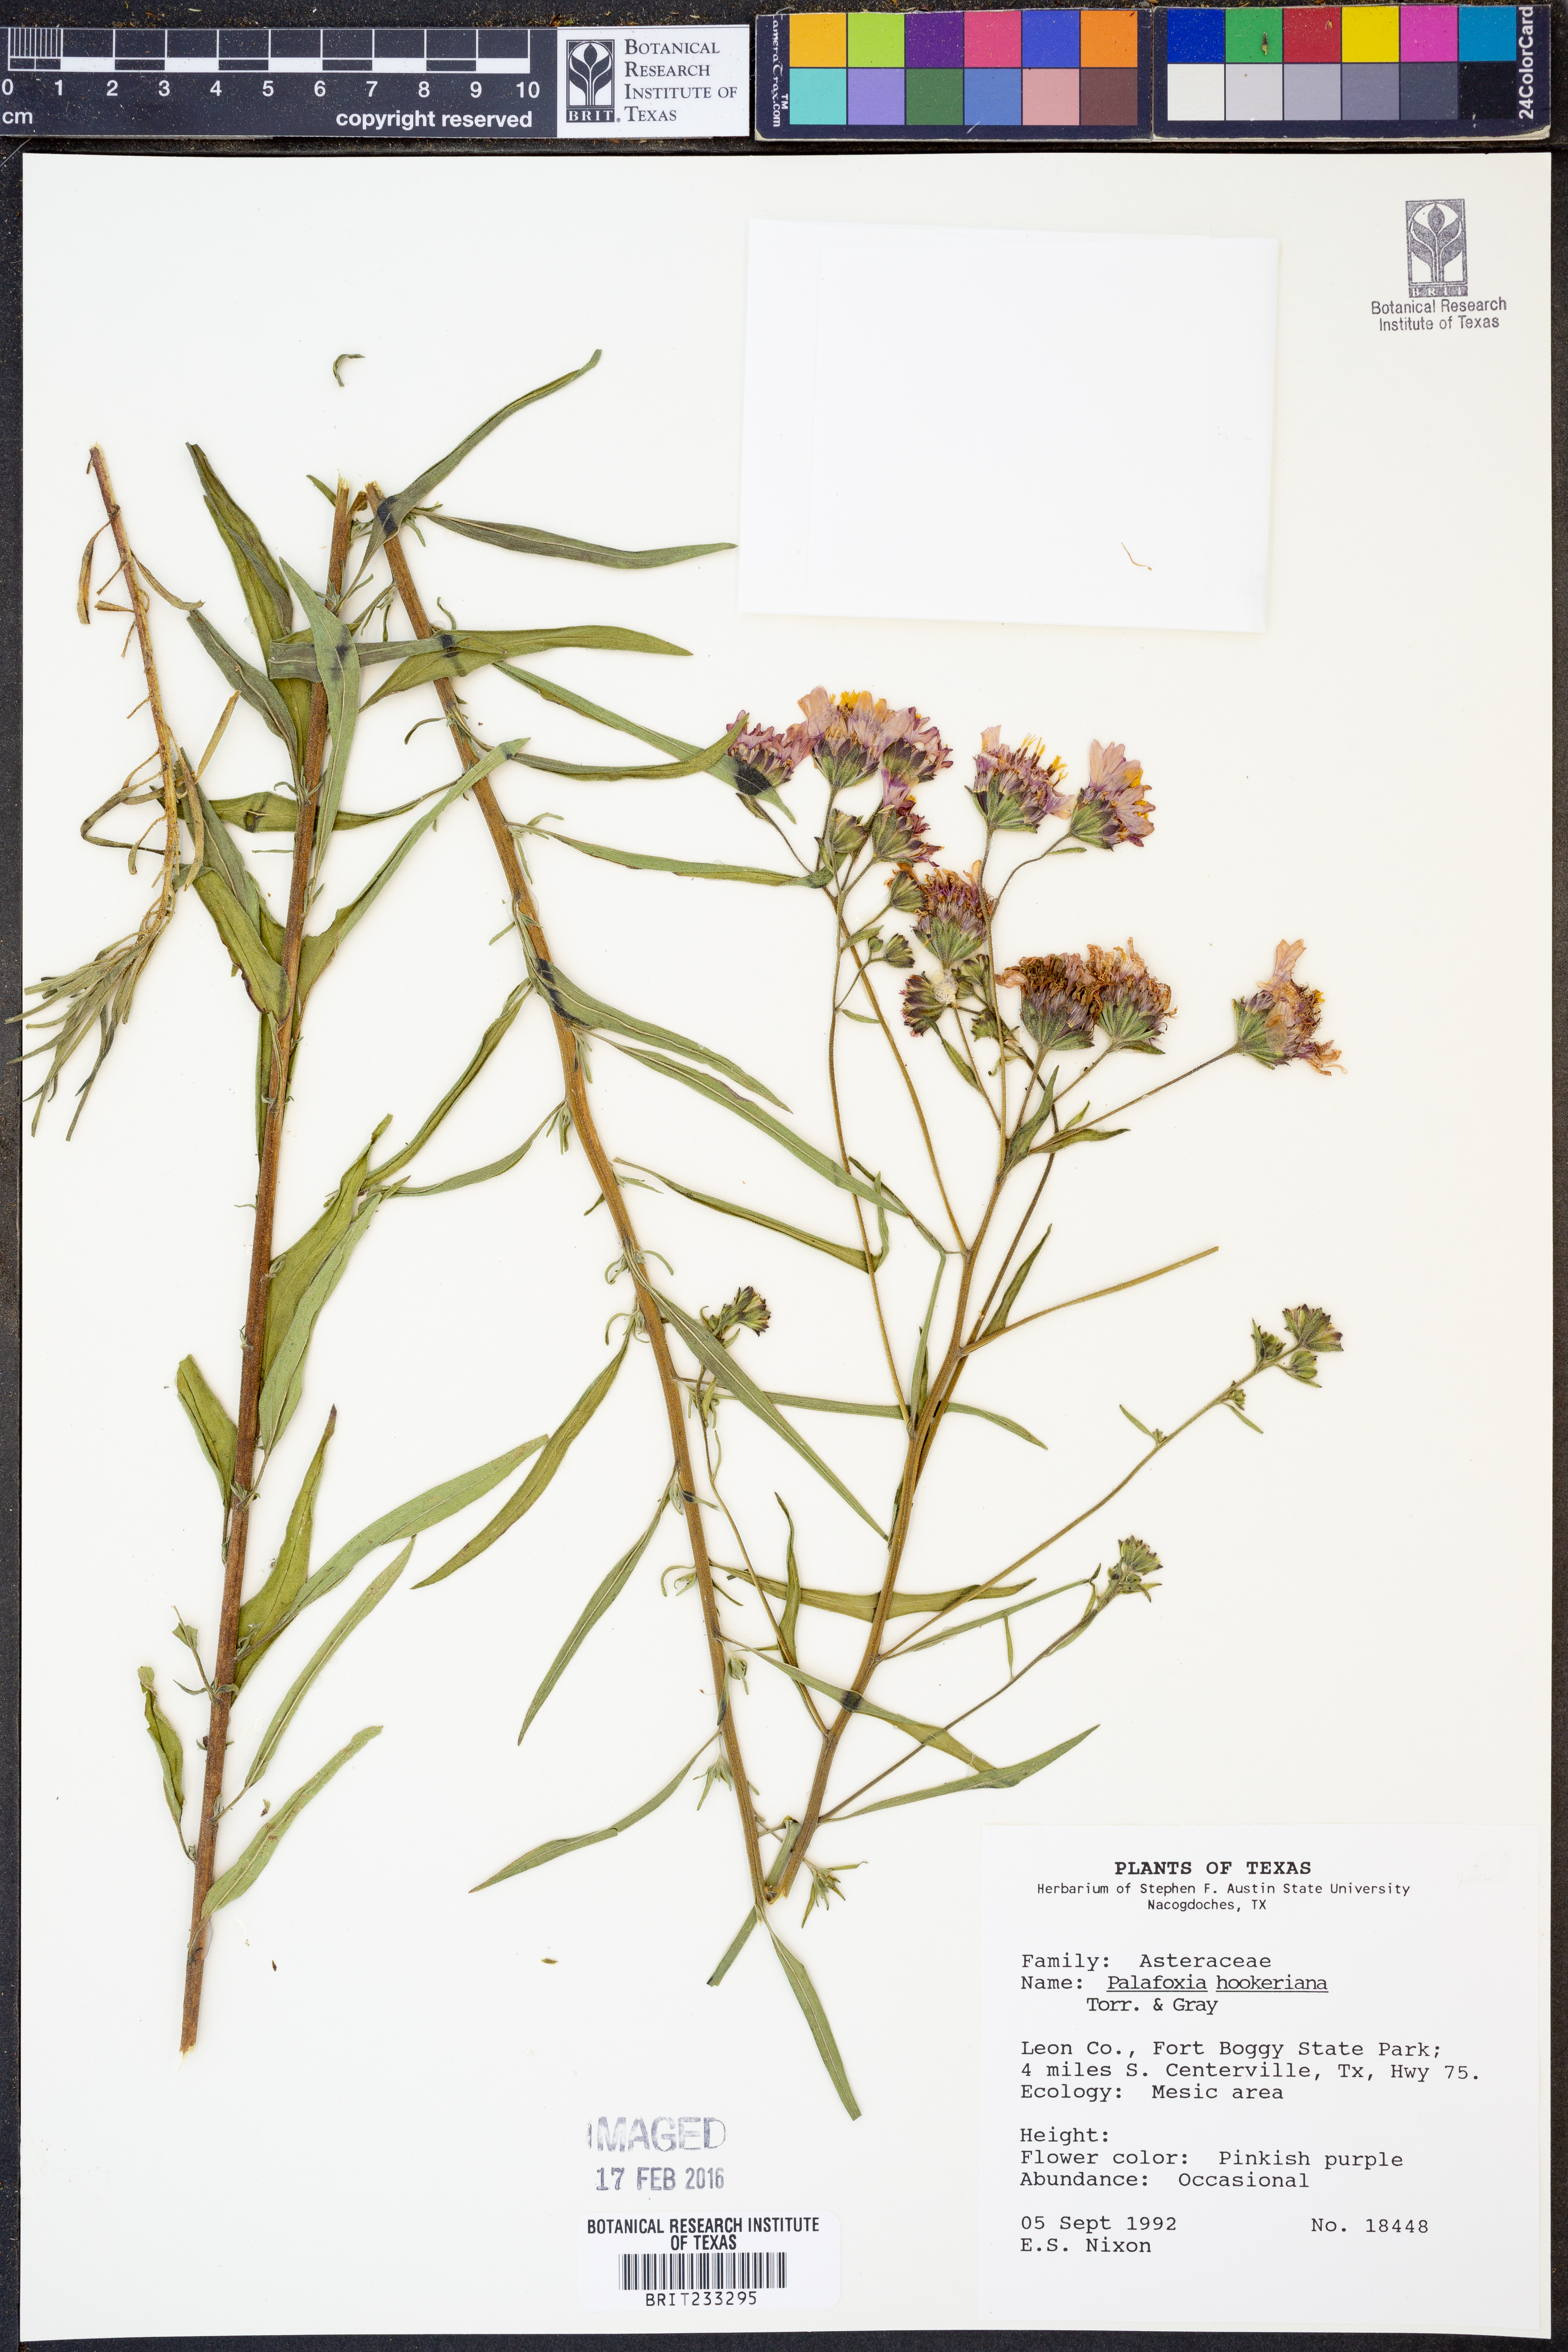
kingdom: Plantae
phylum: Tracheophyta
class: Magnoliopsida
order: Asterales
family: Asteraceae
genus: Palafoxia
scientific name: Palafoxia hookeriana
